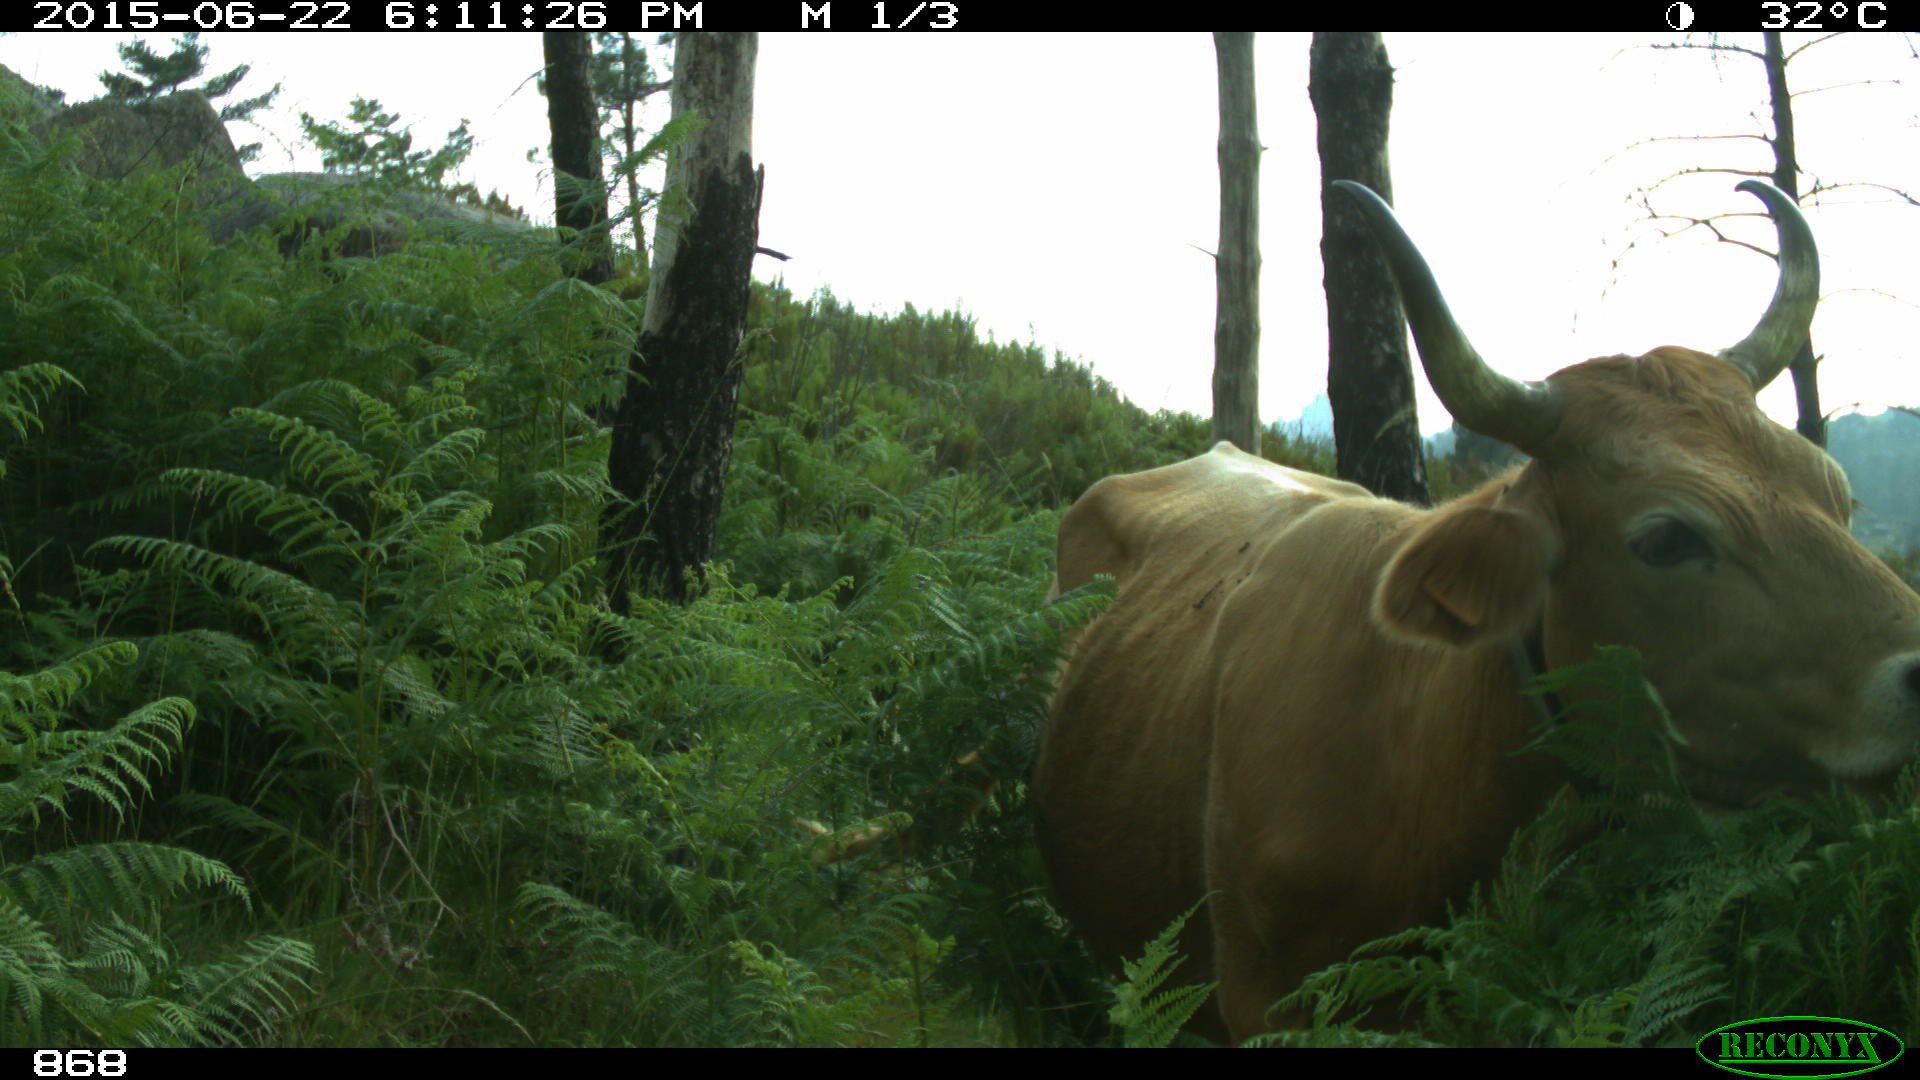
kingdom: Animalia
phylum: Chordata
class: Mammalia
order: Artiodactyla
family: Bovidae
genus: Bos
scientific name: Bos taurus
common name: Domesticated cattle
